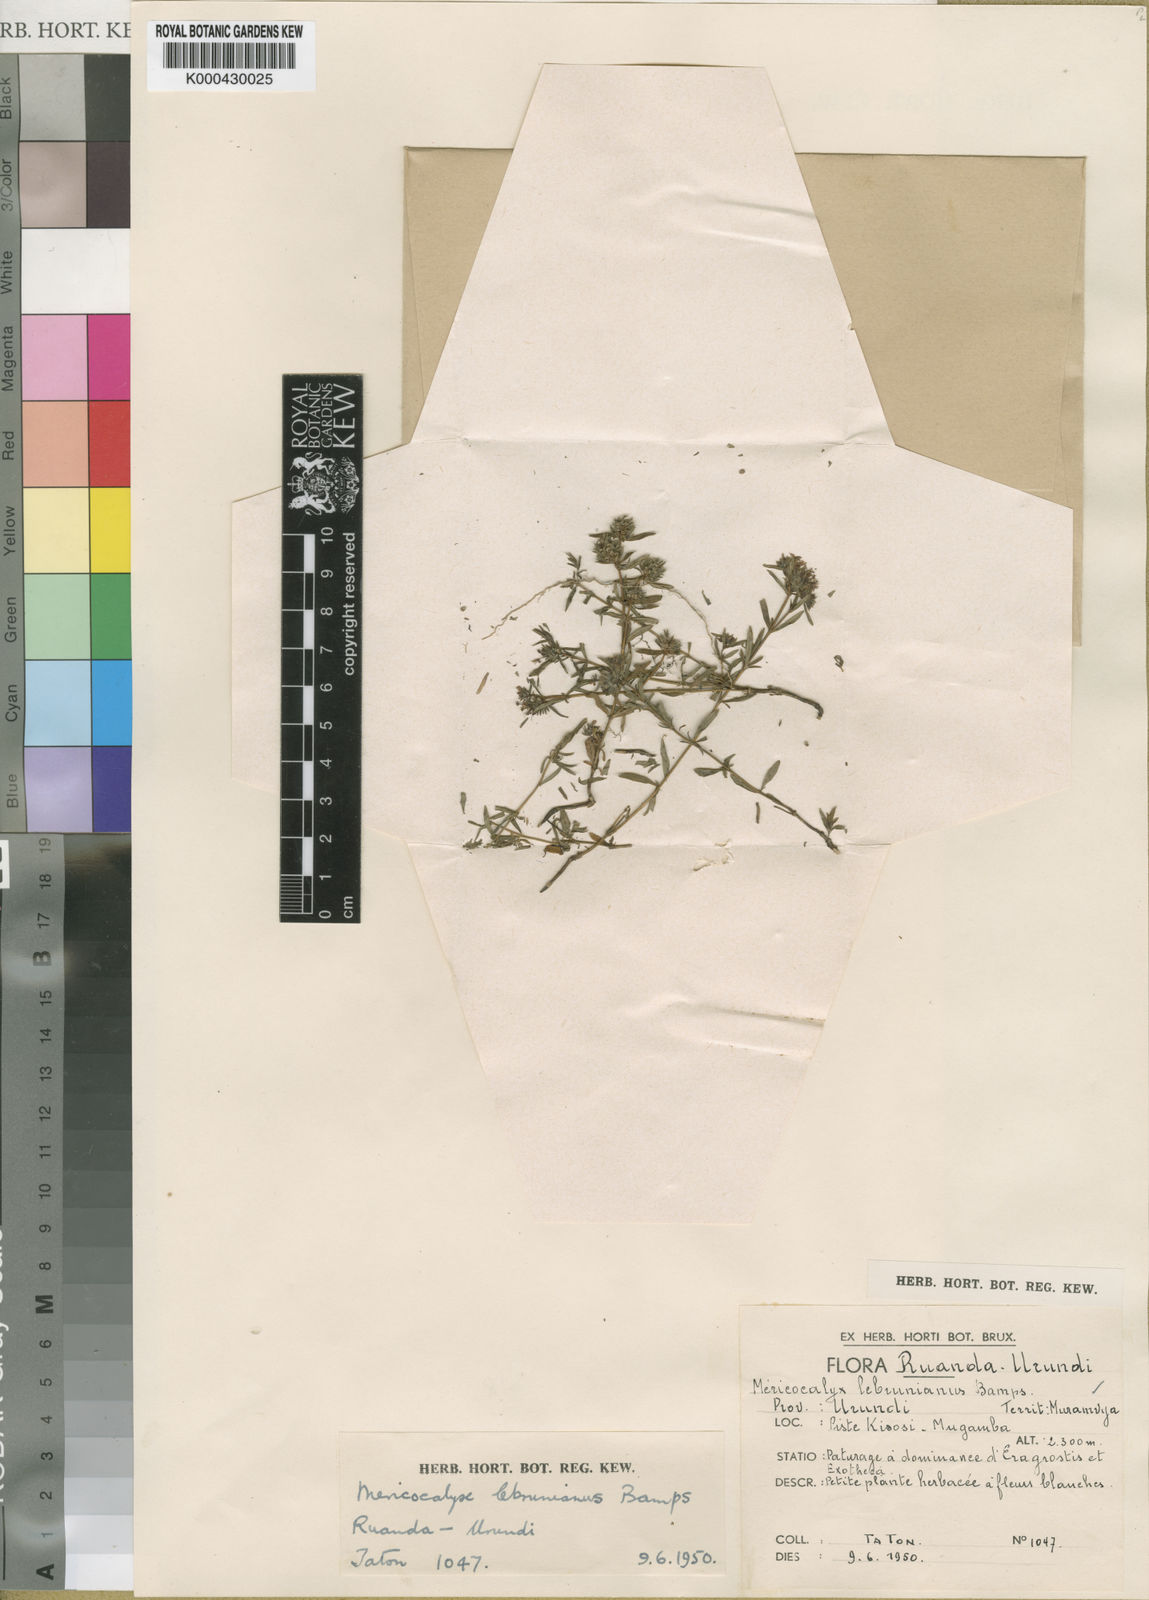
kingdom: Plantae
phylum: Tracheophyta
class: Magnoliopsida
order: Gentianales
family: Rubiaceae
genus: Otiophora
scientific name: Otiophora lebruniana
